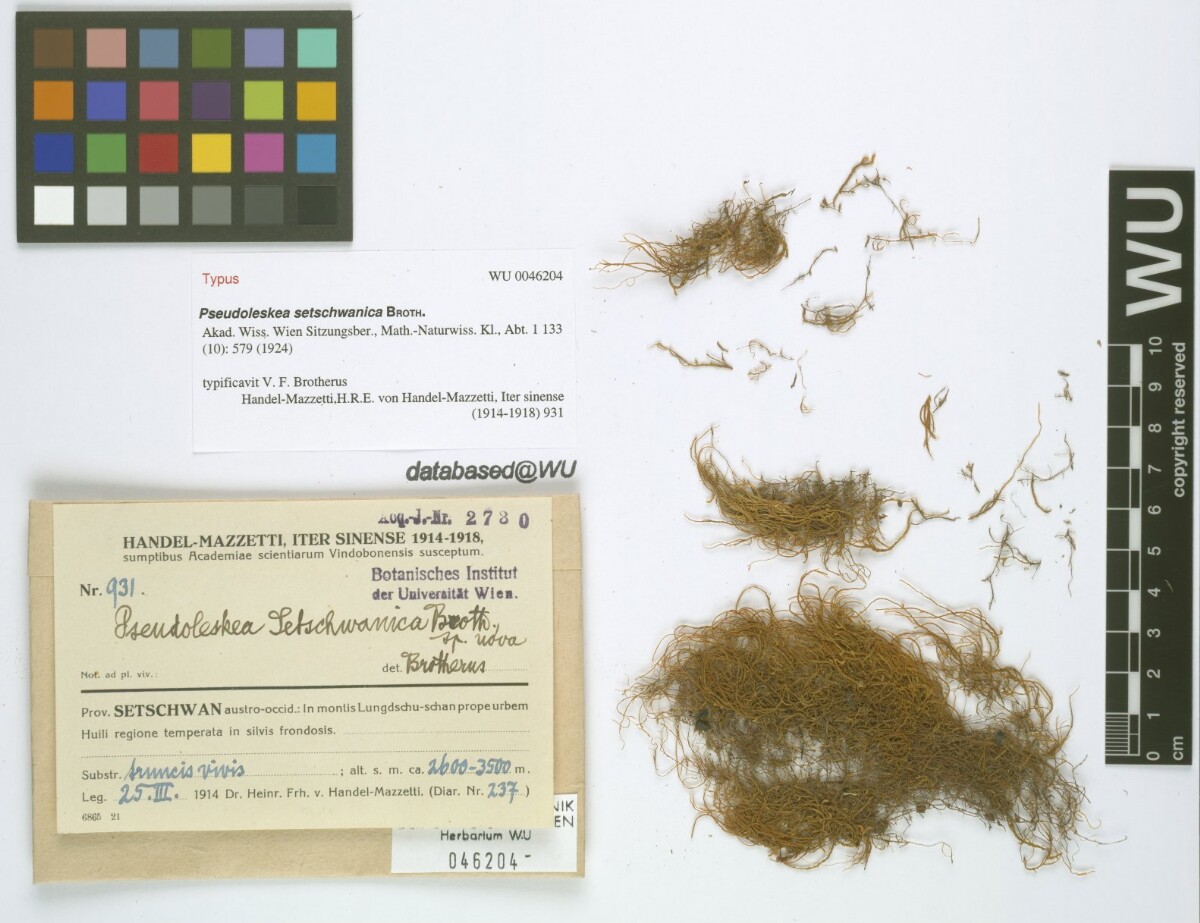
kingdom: Plantae
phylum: Bryophyta
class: Bryopsida
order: Hypnales
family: Pseudoleskeaceae
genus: Lescuraea
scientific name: Lescuraea setschwanica
